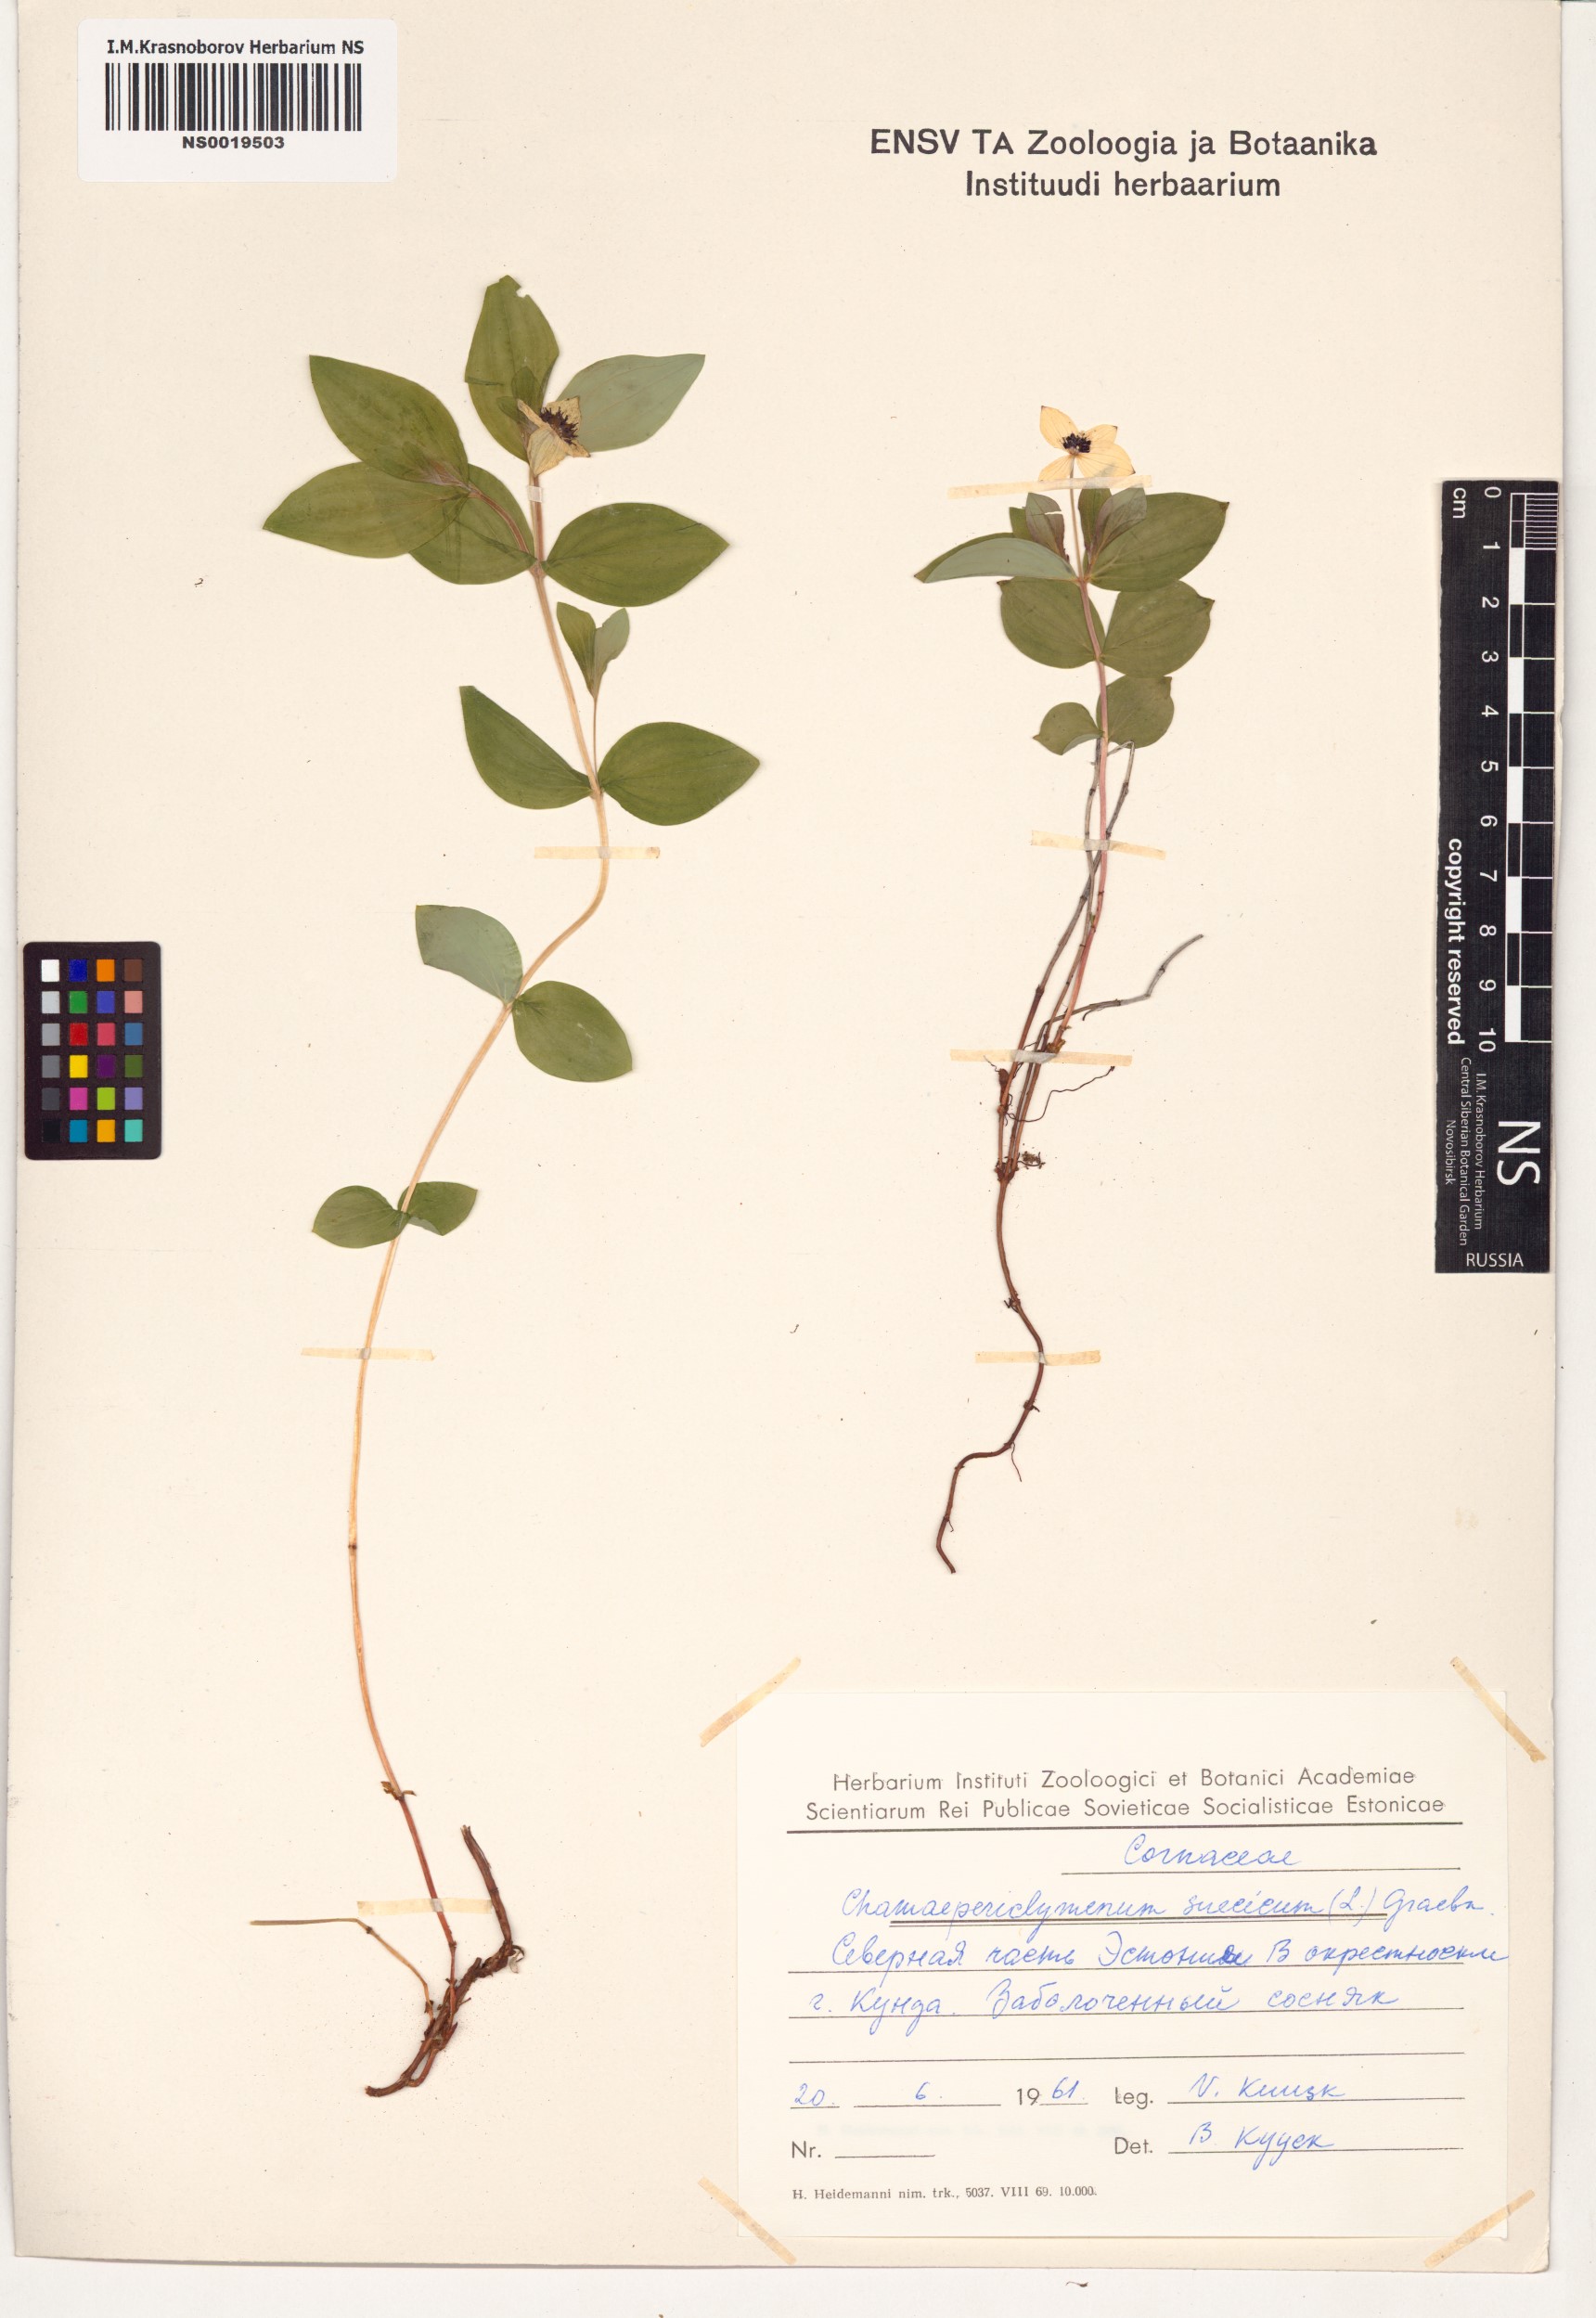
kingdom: Plantae
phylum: Tracheophyta
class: Magnoliopsida
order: Cornales
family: Cornaceae
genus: Cornus
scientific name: Cornus suecica
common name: Dwarf cornel
